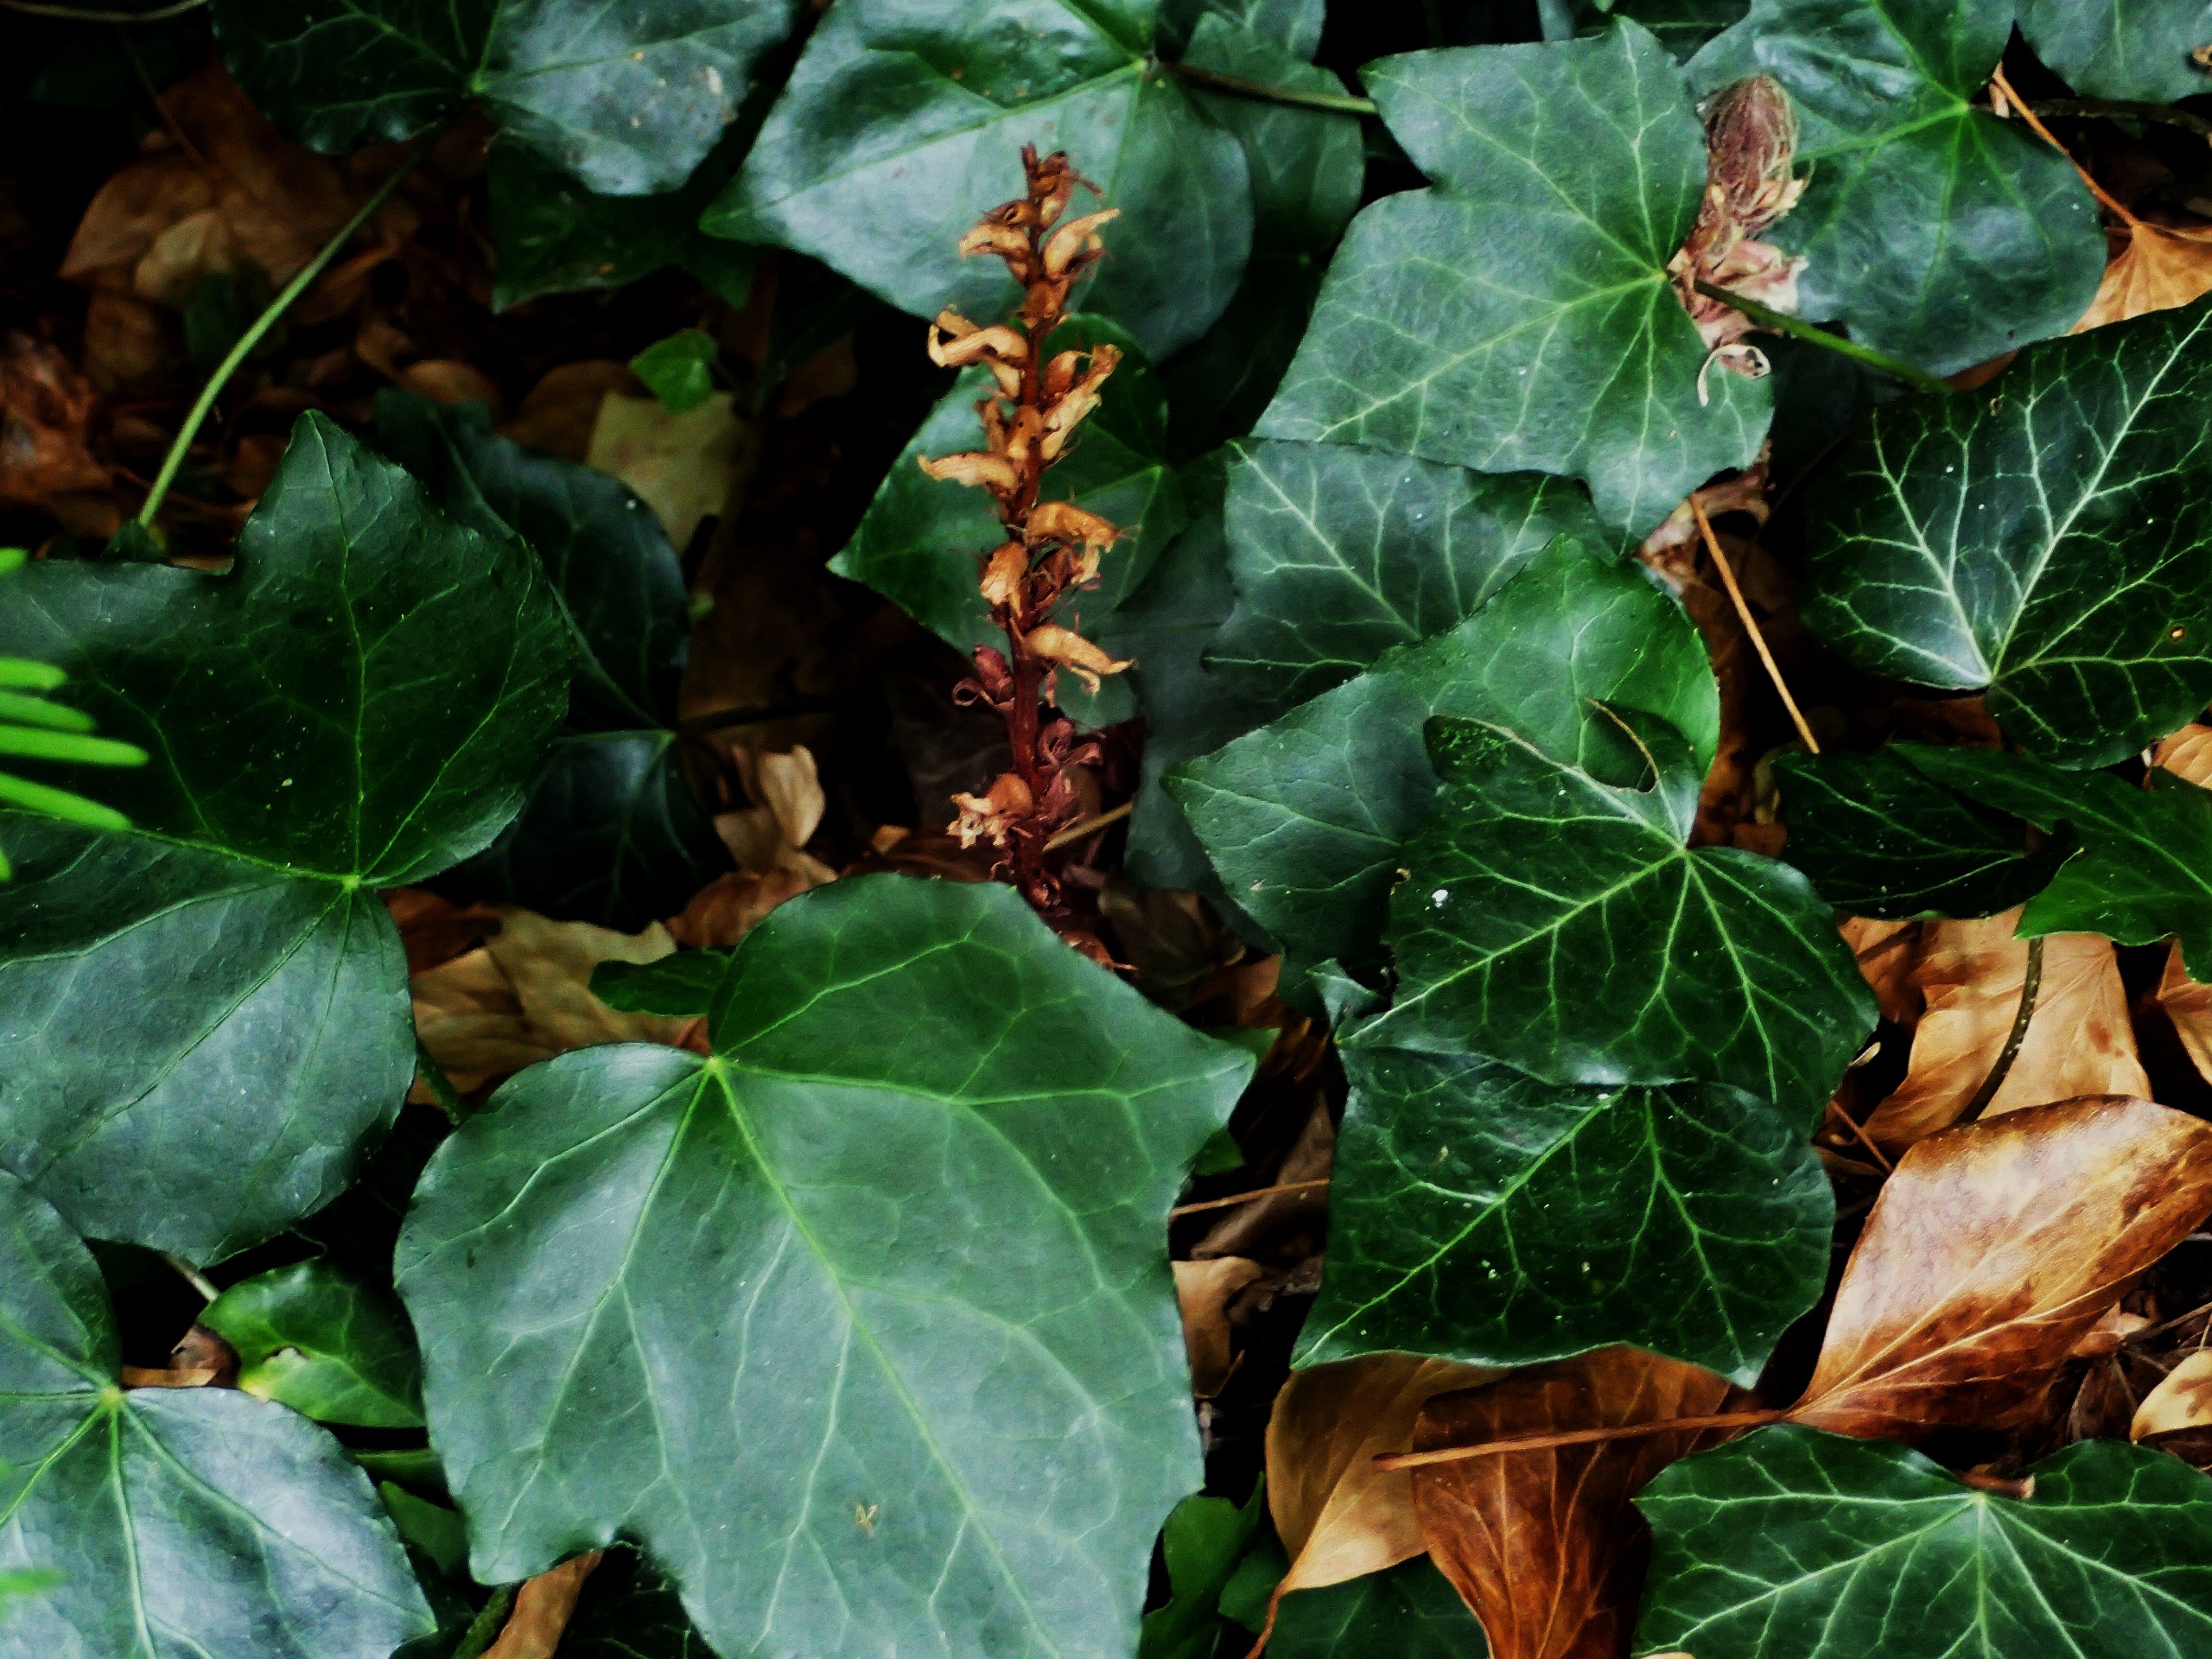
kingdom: Plantae
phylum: Tracheophyta
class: Magnoliopsida
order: Lamiales
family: Orobanchaceae
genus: Orobanche
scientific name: Orobanche hederae
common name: Vedbend-gyvelkvæler
